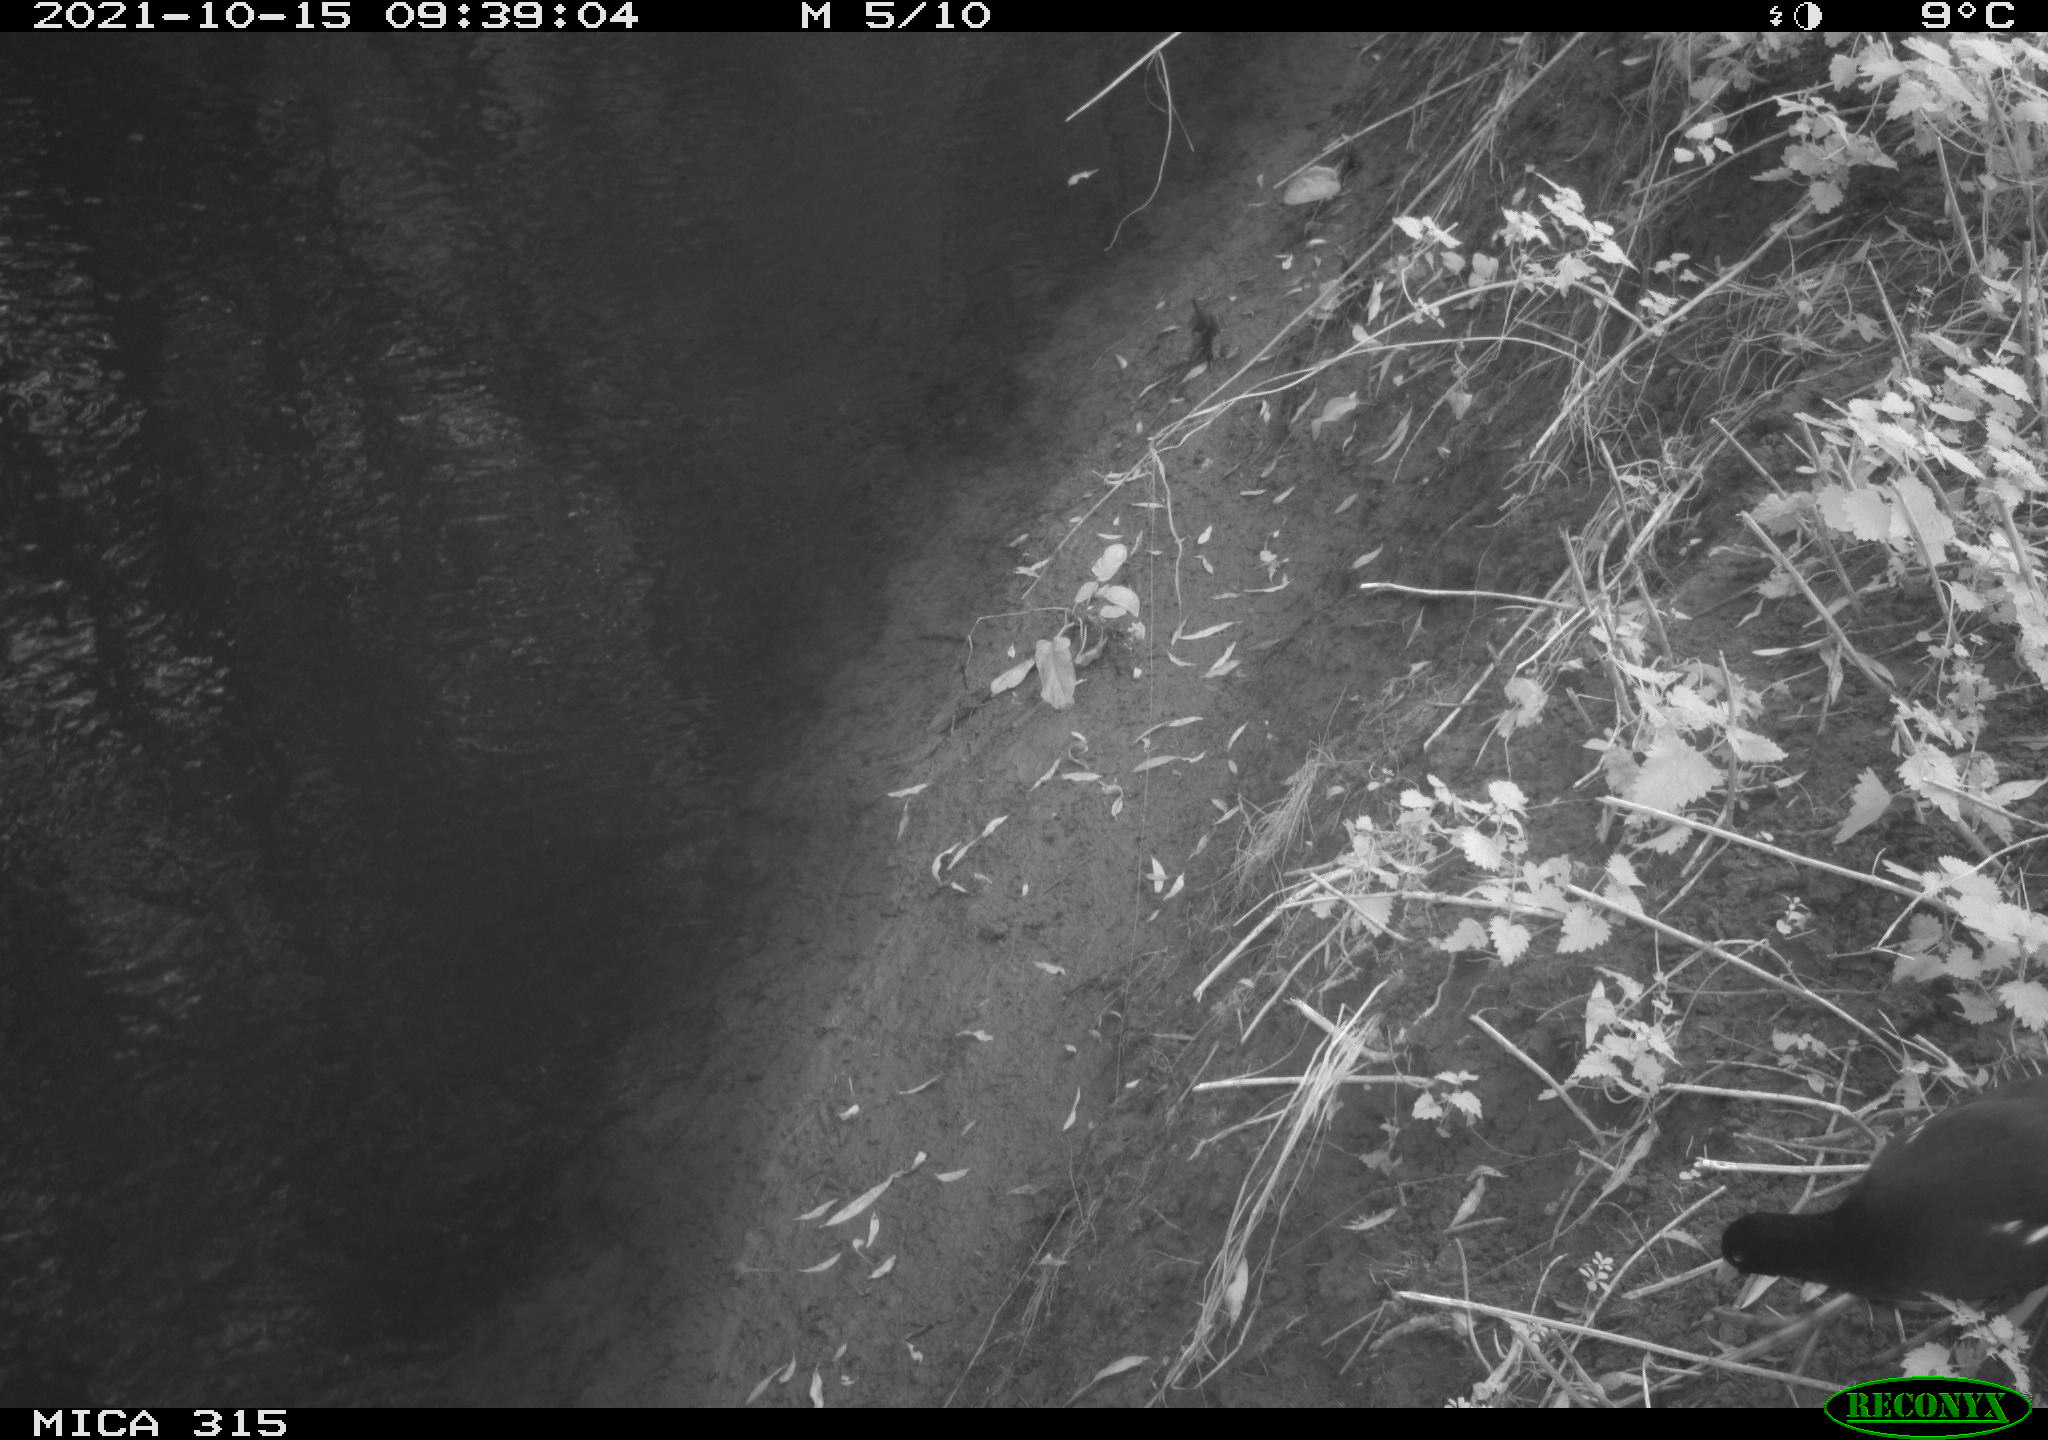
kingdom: Animalia
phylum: Chordata
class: Aves
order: Gruiformes
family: Rallidae
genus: Gallinula
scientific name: Gallinula chloropus
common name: Common moorhen
